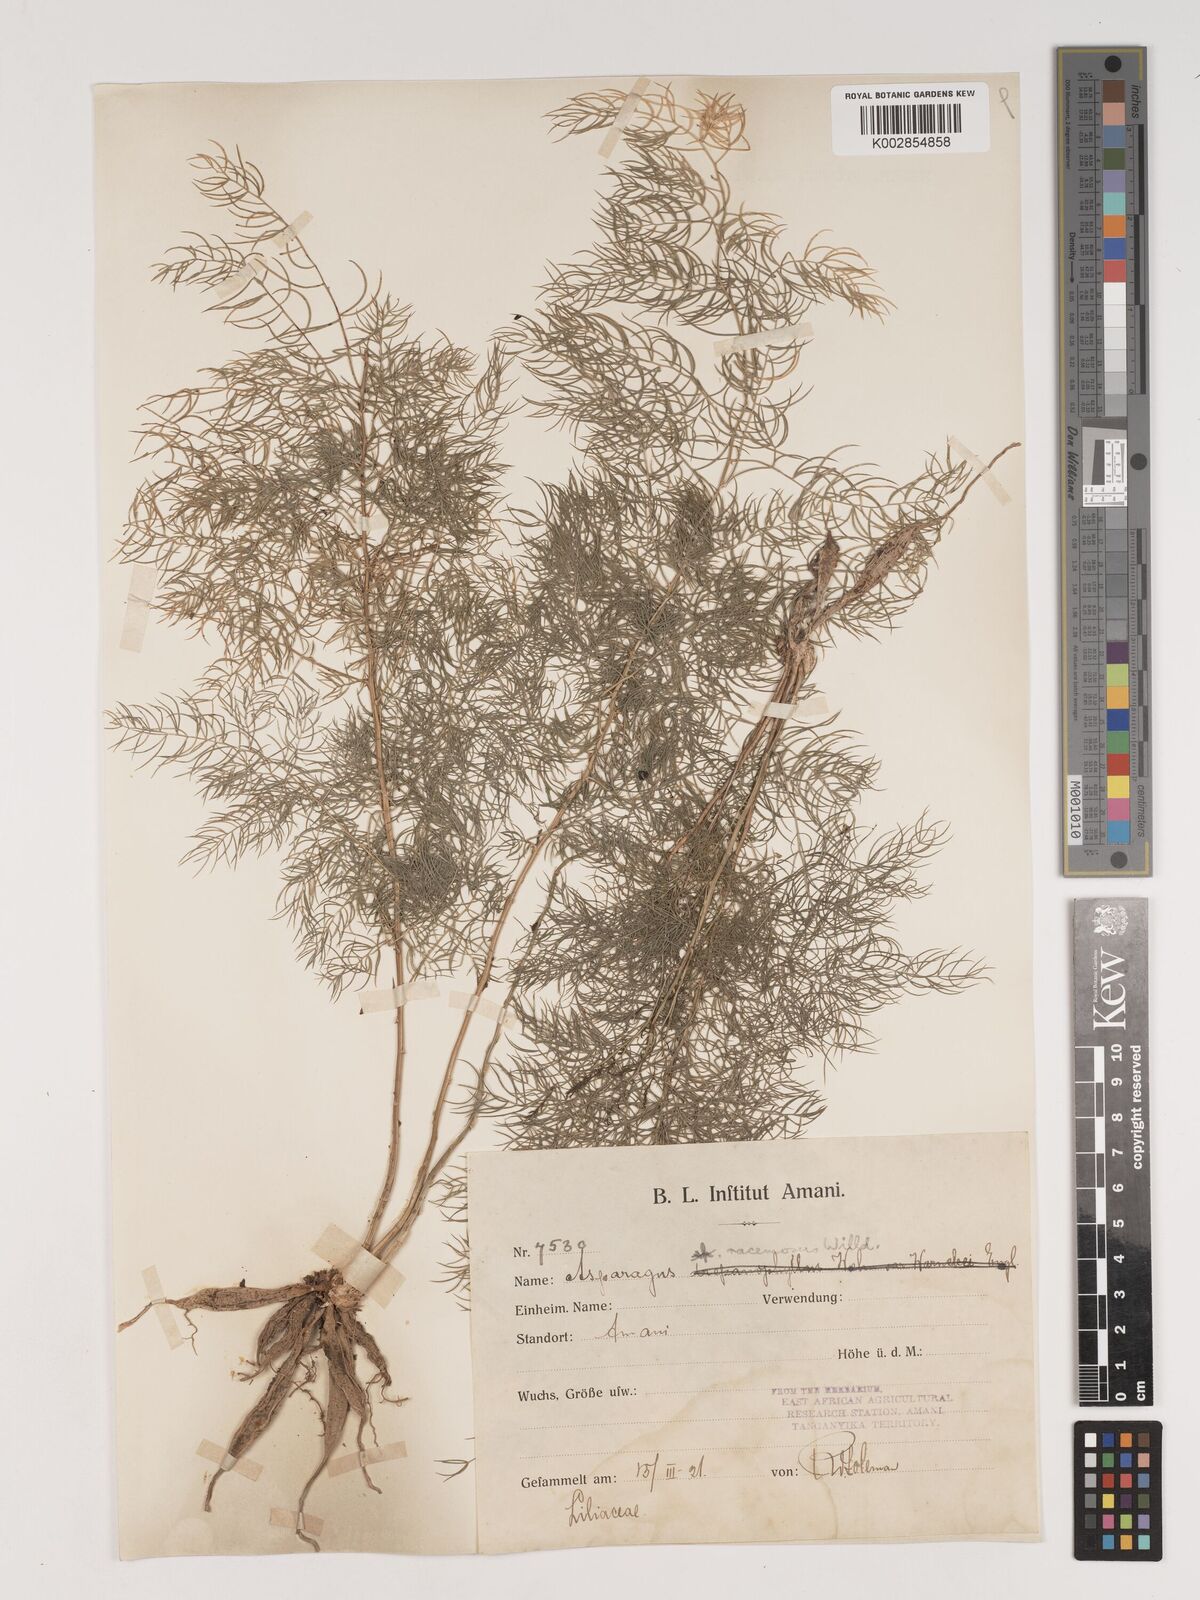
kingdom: Plantae
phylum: Tracheophyta
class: Liliopsida
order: Asparagales
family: Asparagaceae
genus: Asparagus
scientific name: Asparagus racemosus
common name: Asparagus-fern
